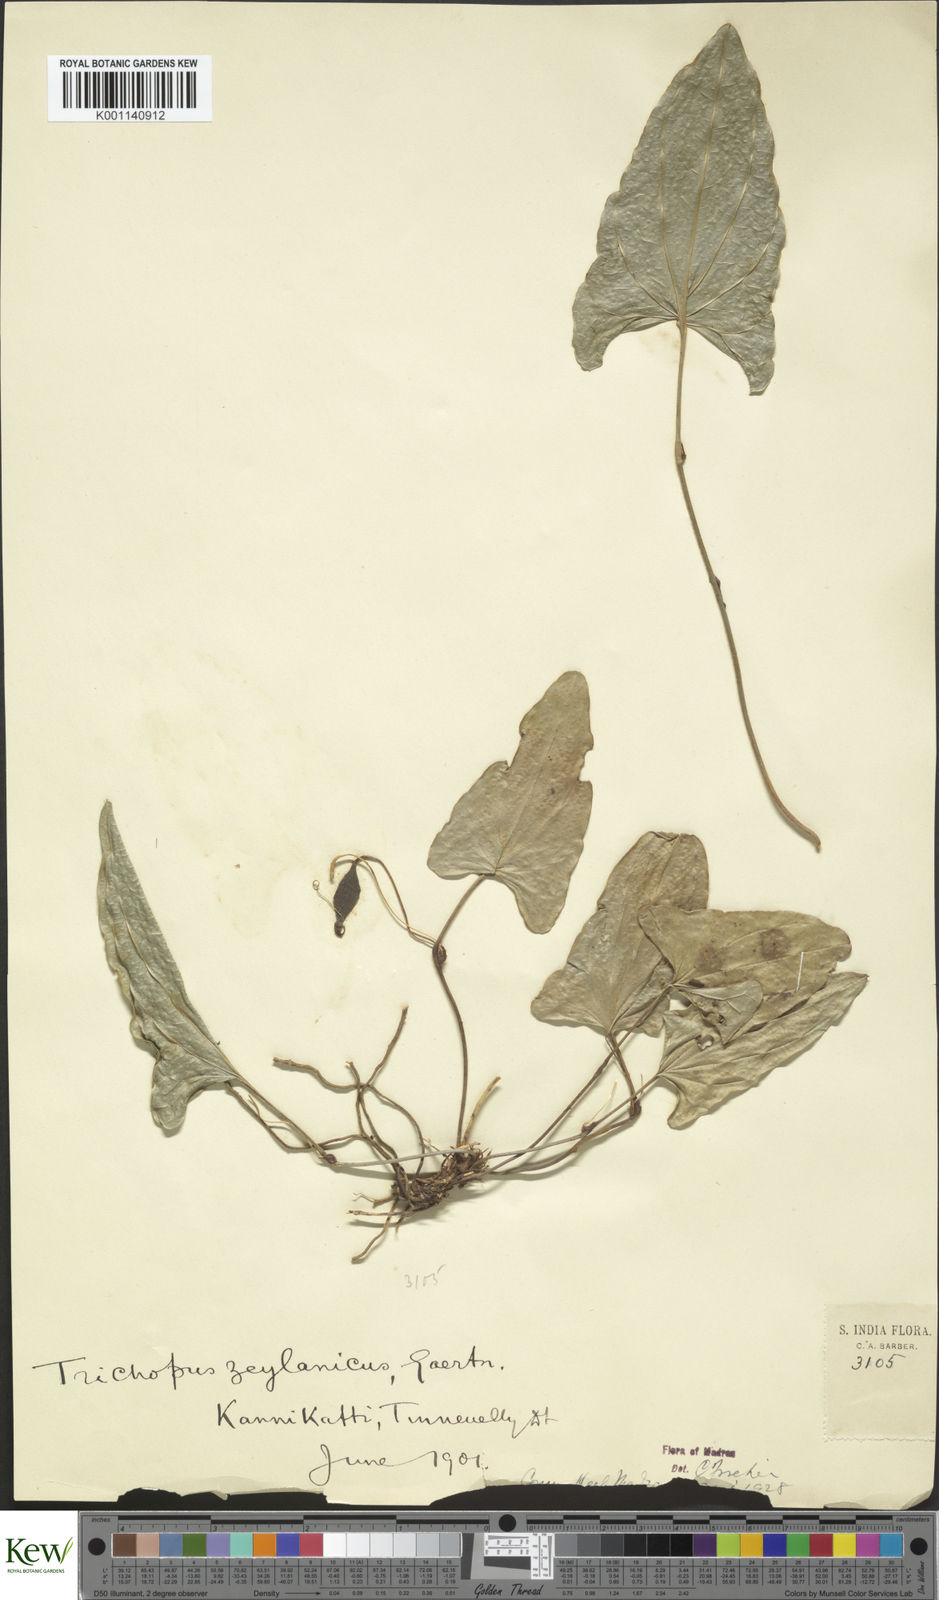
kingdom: Plantae
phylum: Tracheophyta
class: Liliopsida
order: Dioscoreales
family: Dioscoreaceae
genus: Trichopus
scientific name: Trichopus zeylanicus
